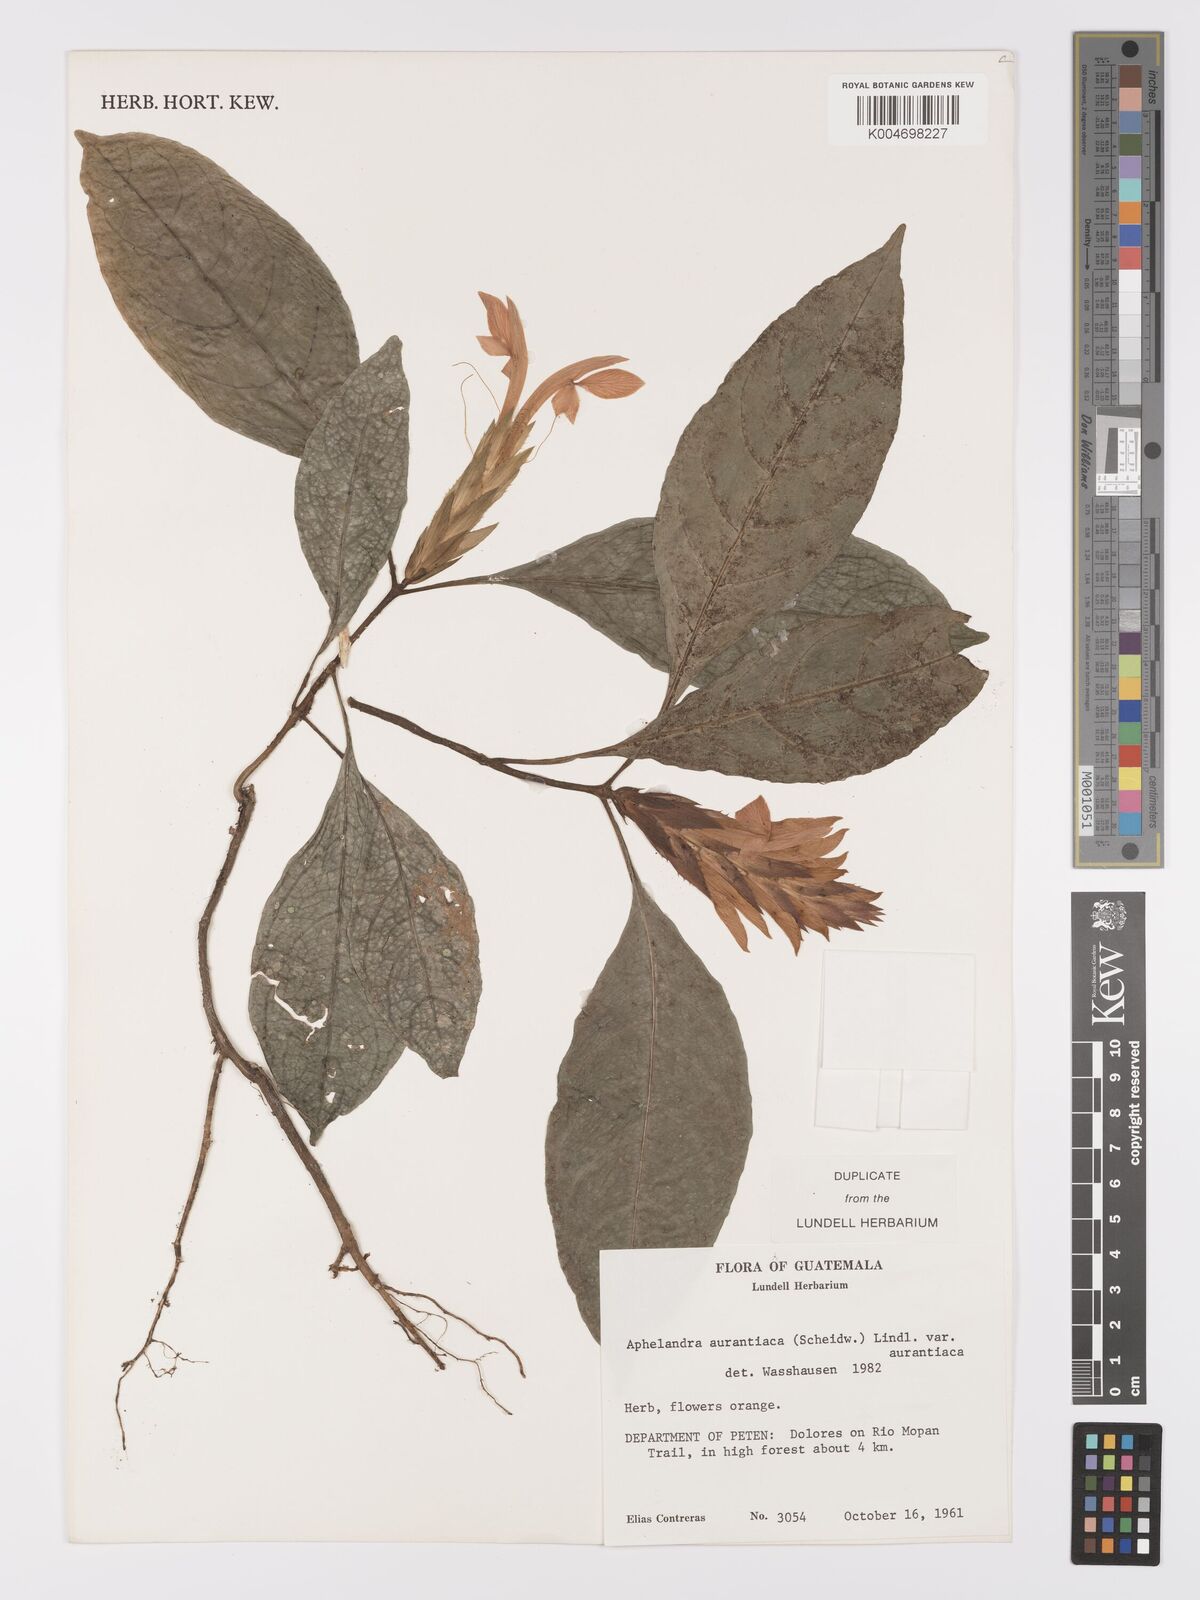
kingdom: Plantae
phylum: Tracheophyta
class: Magnoliopsida
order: Lamiales
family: Acanthaceae
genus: Aphelandra
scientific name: Aphelandra aurantiaca
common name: Fiery spike
